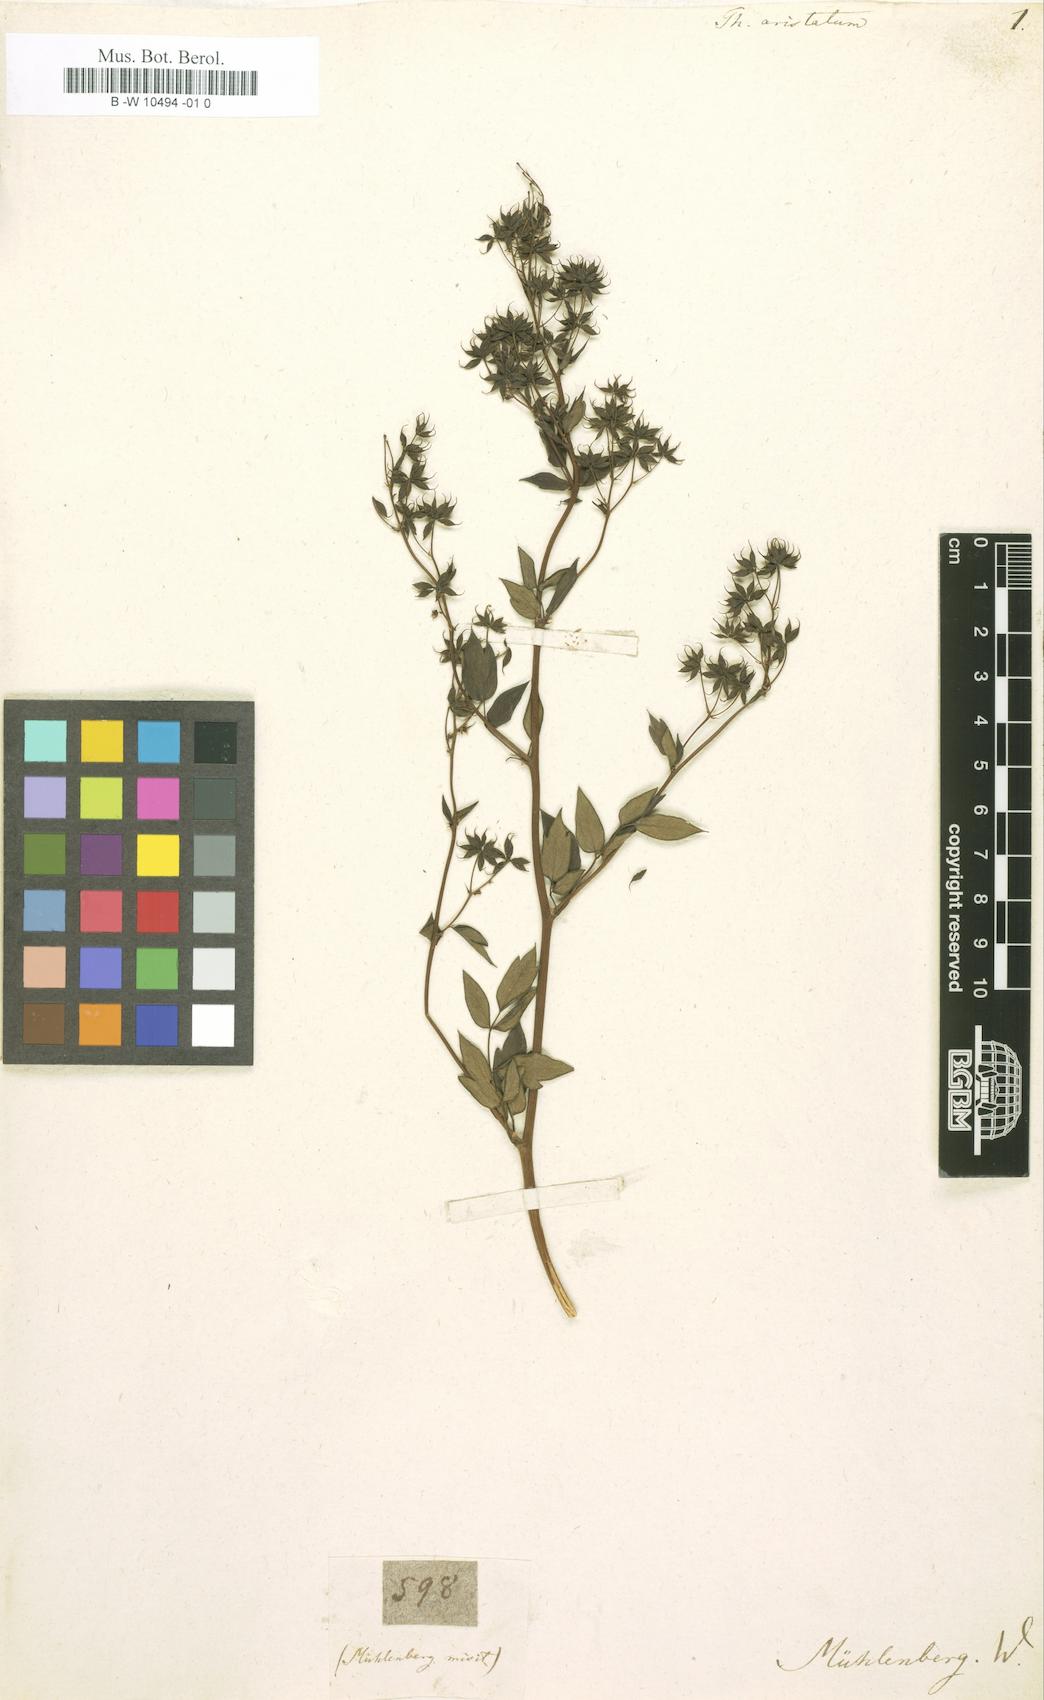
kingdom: Plantae
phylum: Tracheophyta
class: Magnoliopsida
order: Ranunculales
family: Ranunculaceae
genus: Thalictrum
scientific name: Thalictrum revolutum
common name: Waxy meadow-rue
